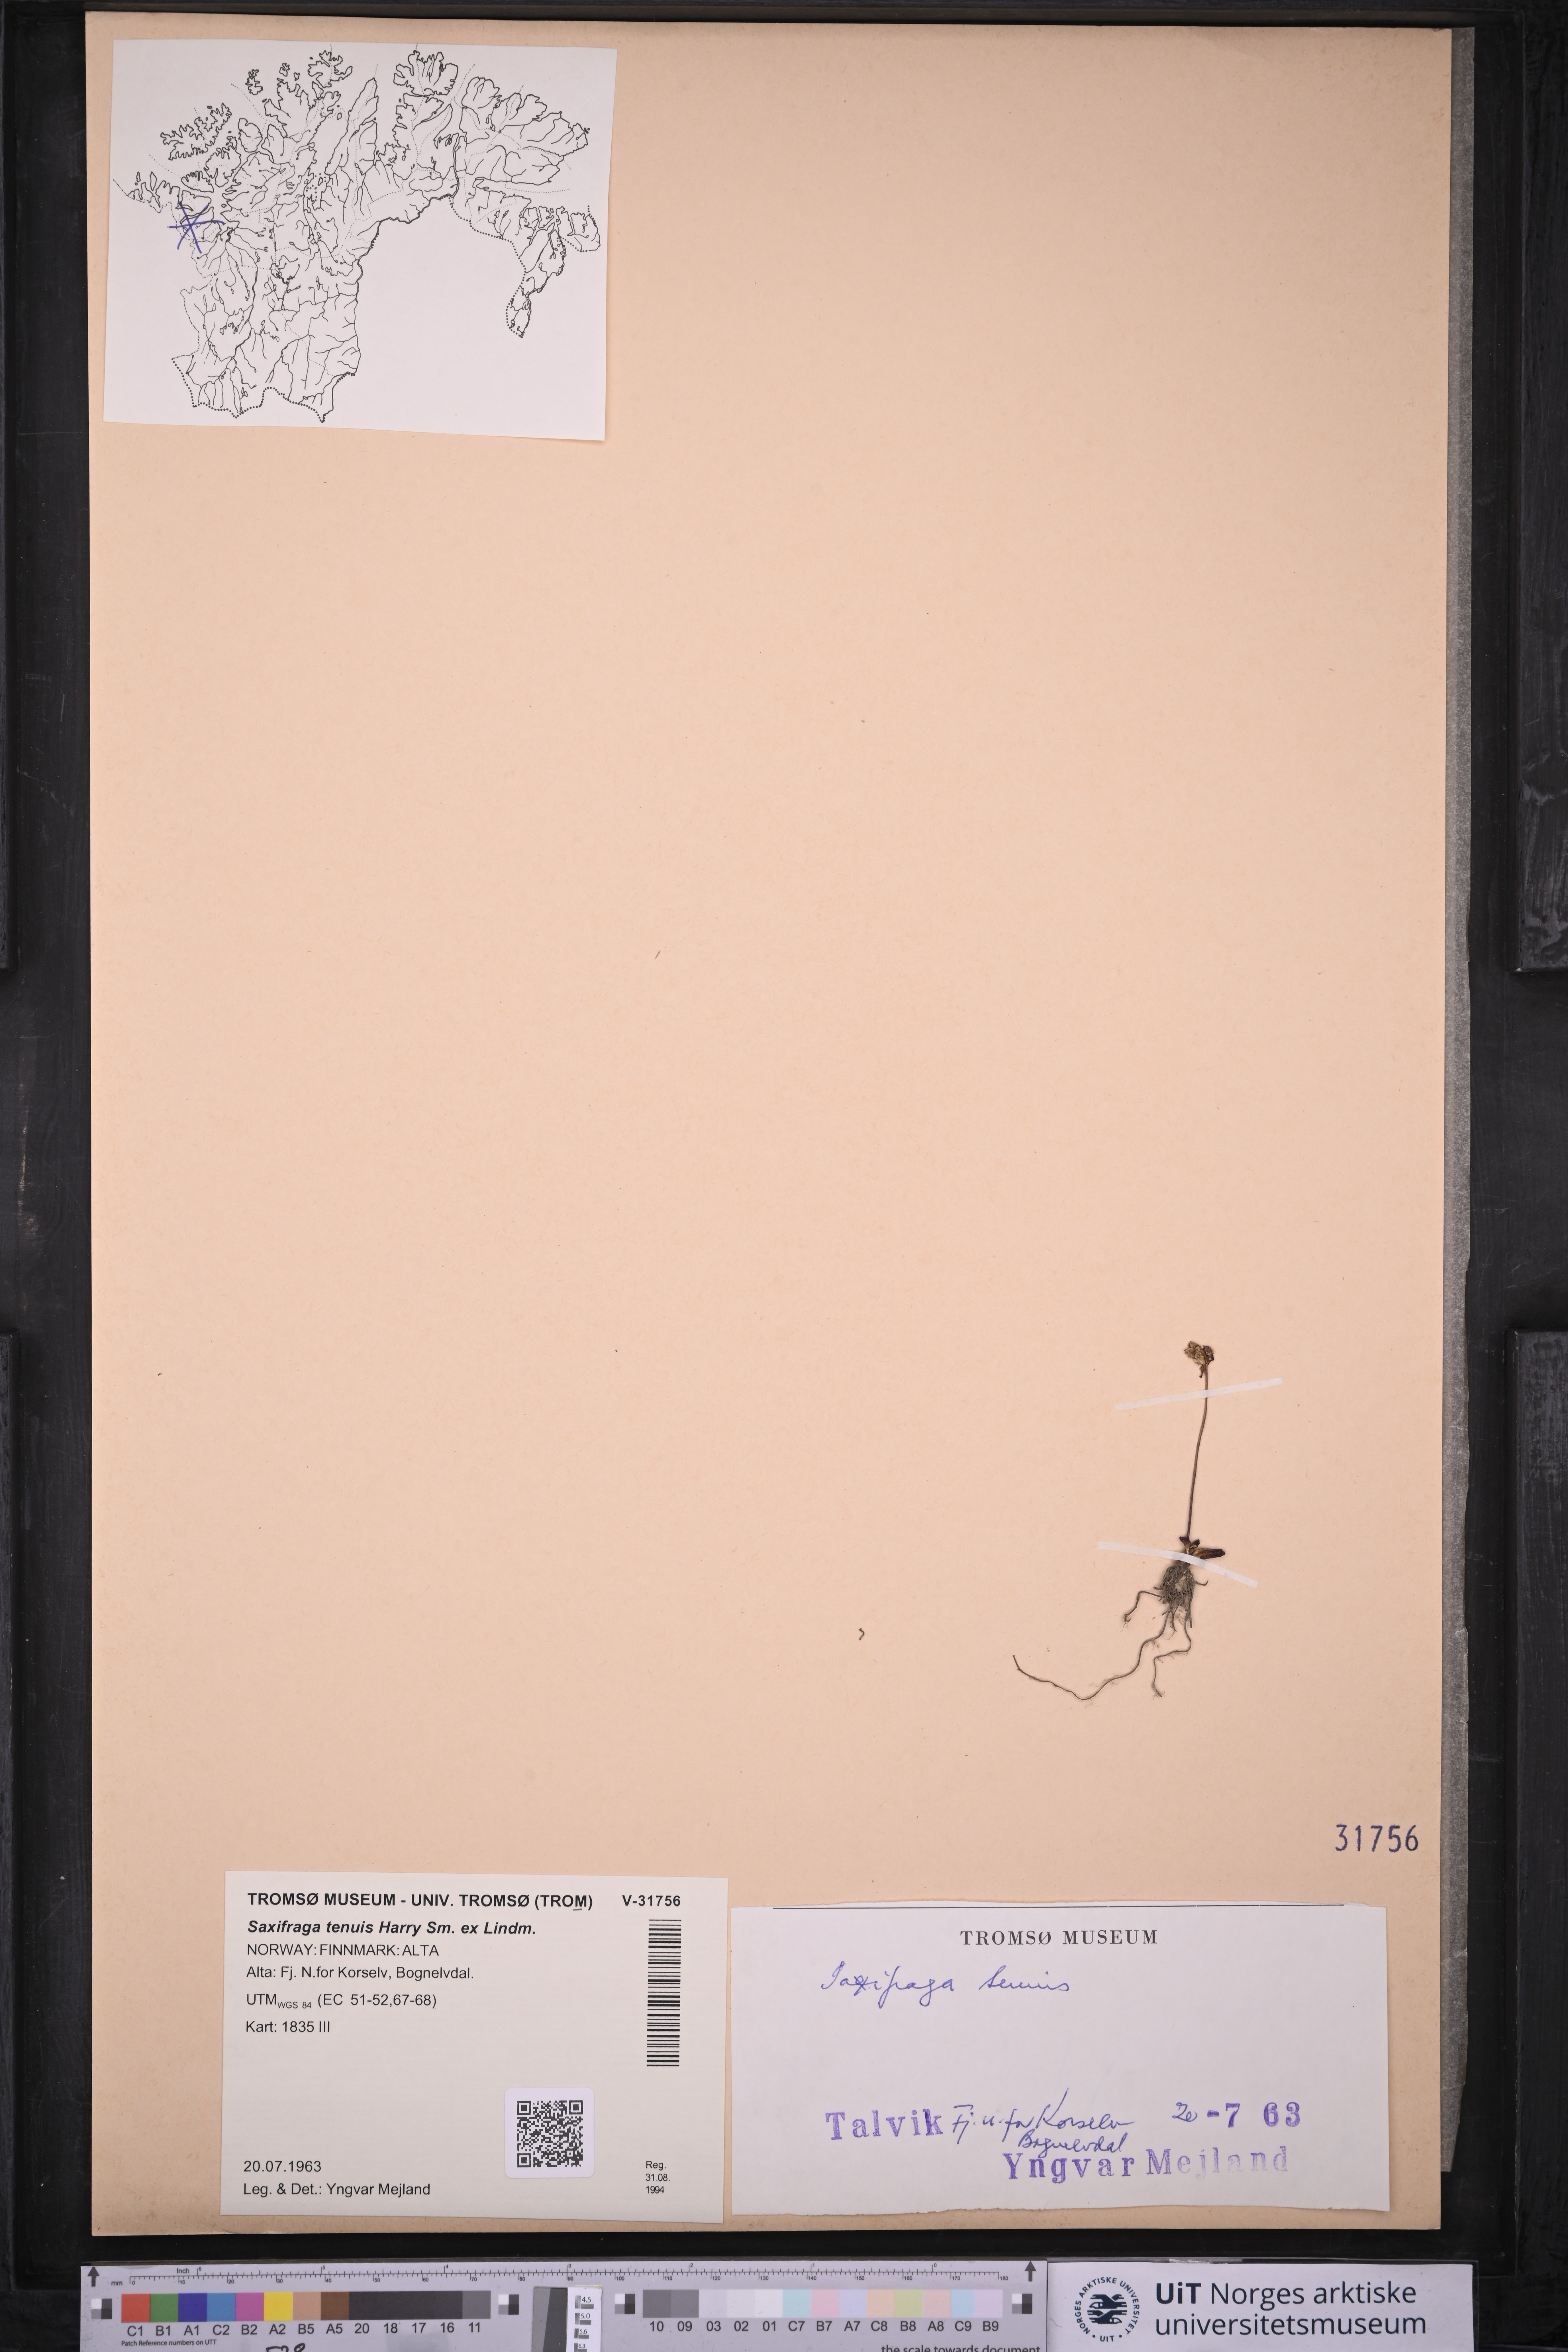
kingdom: Plantae
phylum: Tracheophyta
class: Magnoliopsida
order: Saxifragales
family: Saxifragaceae
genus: Micranthes
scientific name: Micranthes tenuis
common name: Ottertail pass saxifrage
